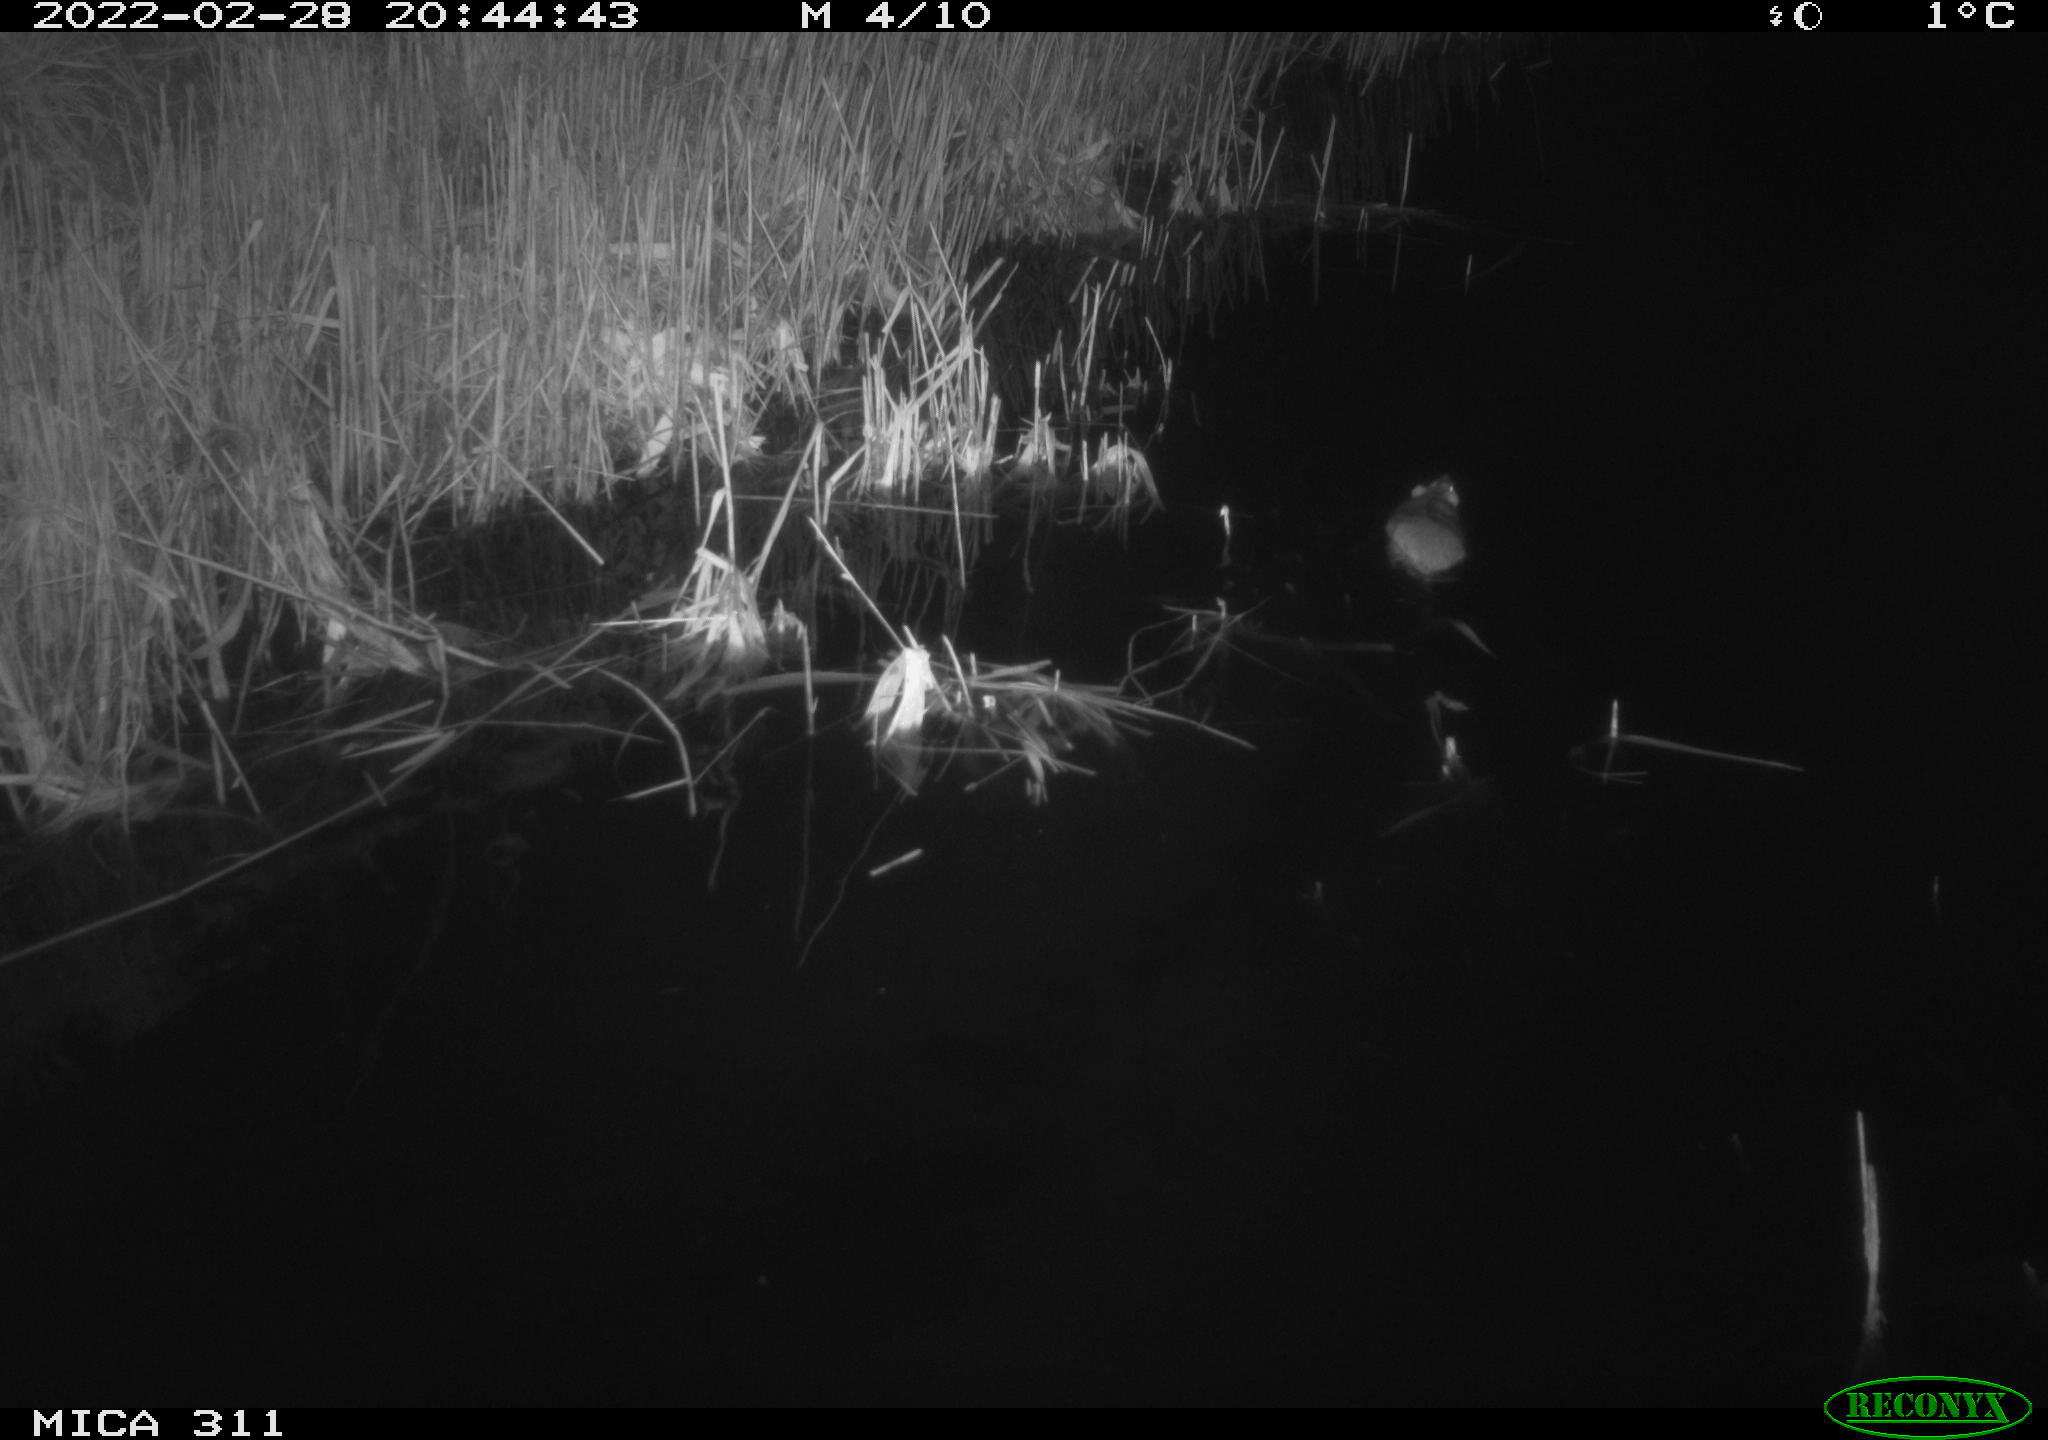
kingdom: Animalia
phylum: Chordata
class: Mammalia
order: Rodentia
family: Muridae
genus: Rattus
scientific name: Rattus norvegicus
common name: Brown rat
